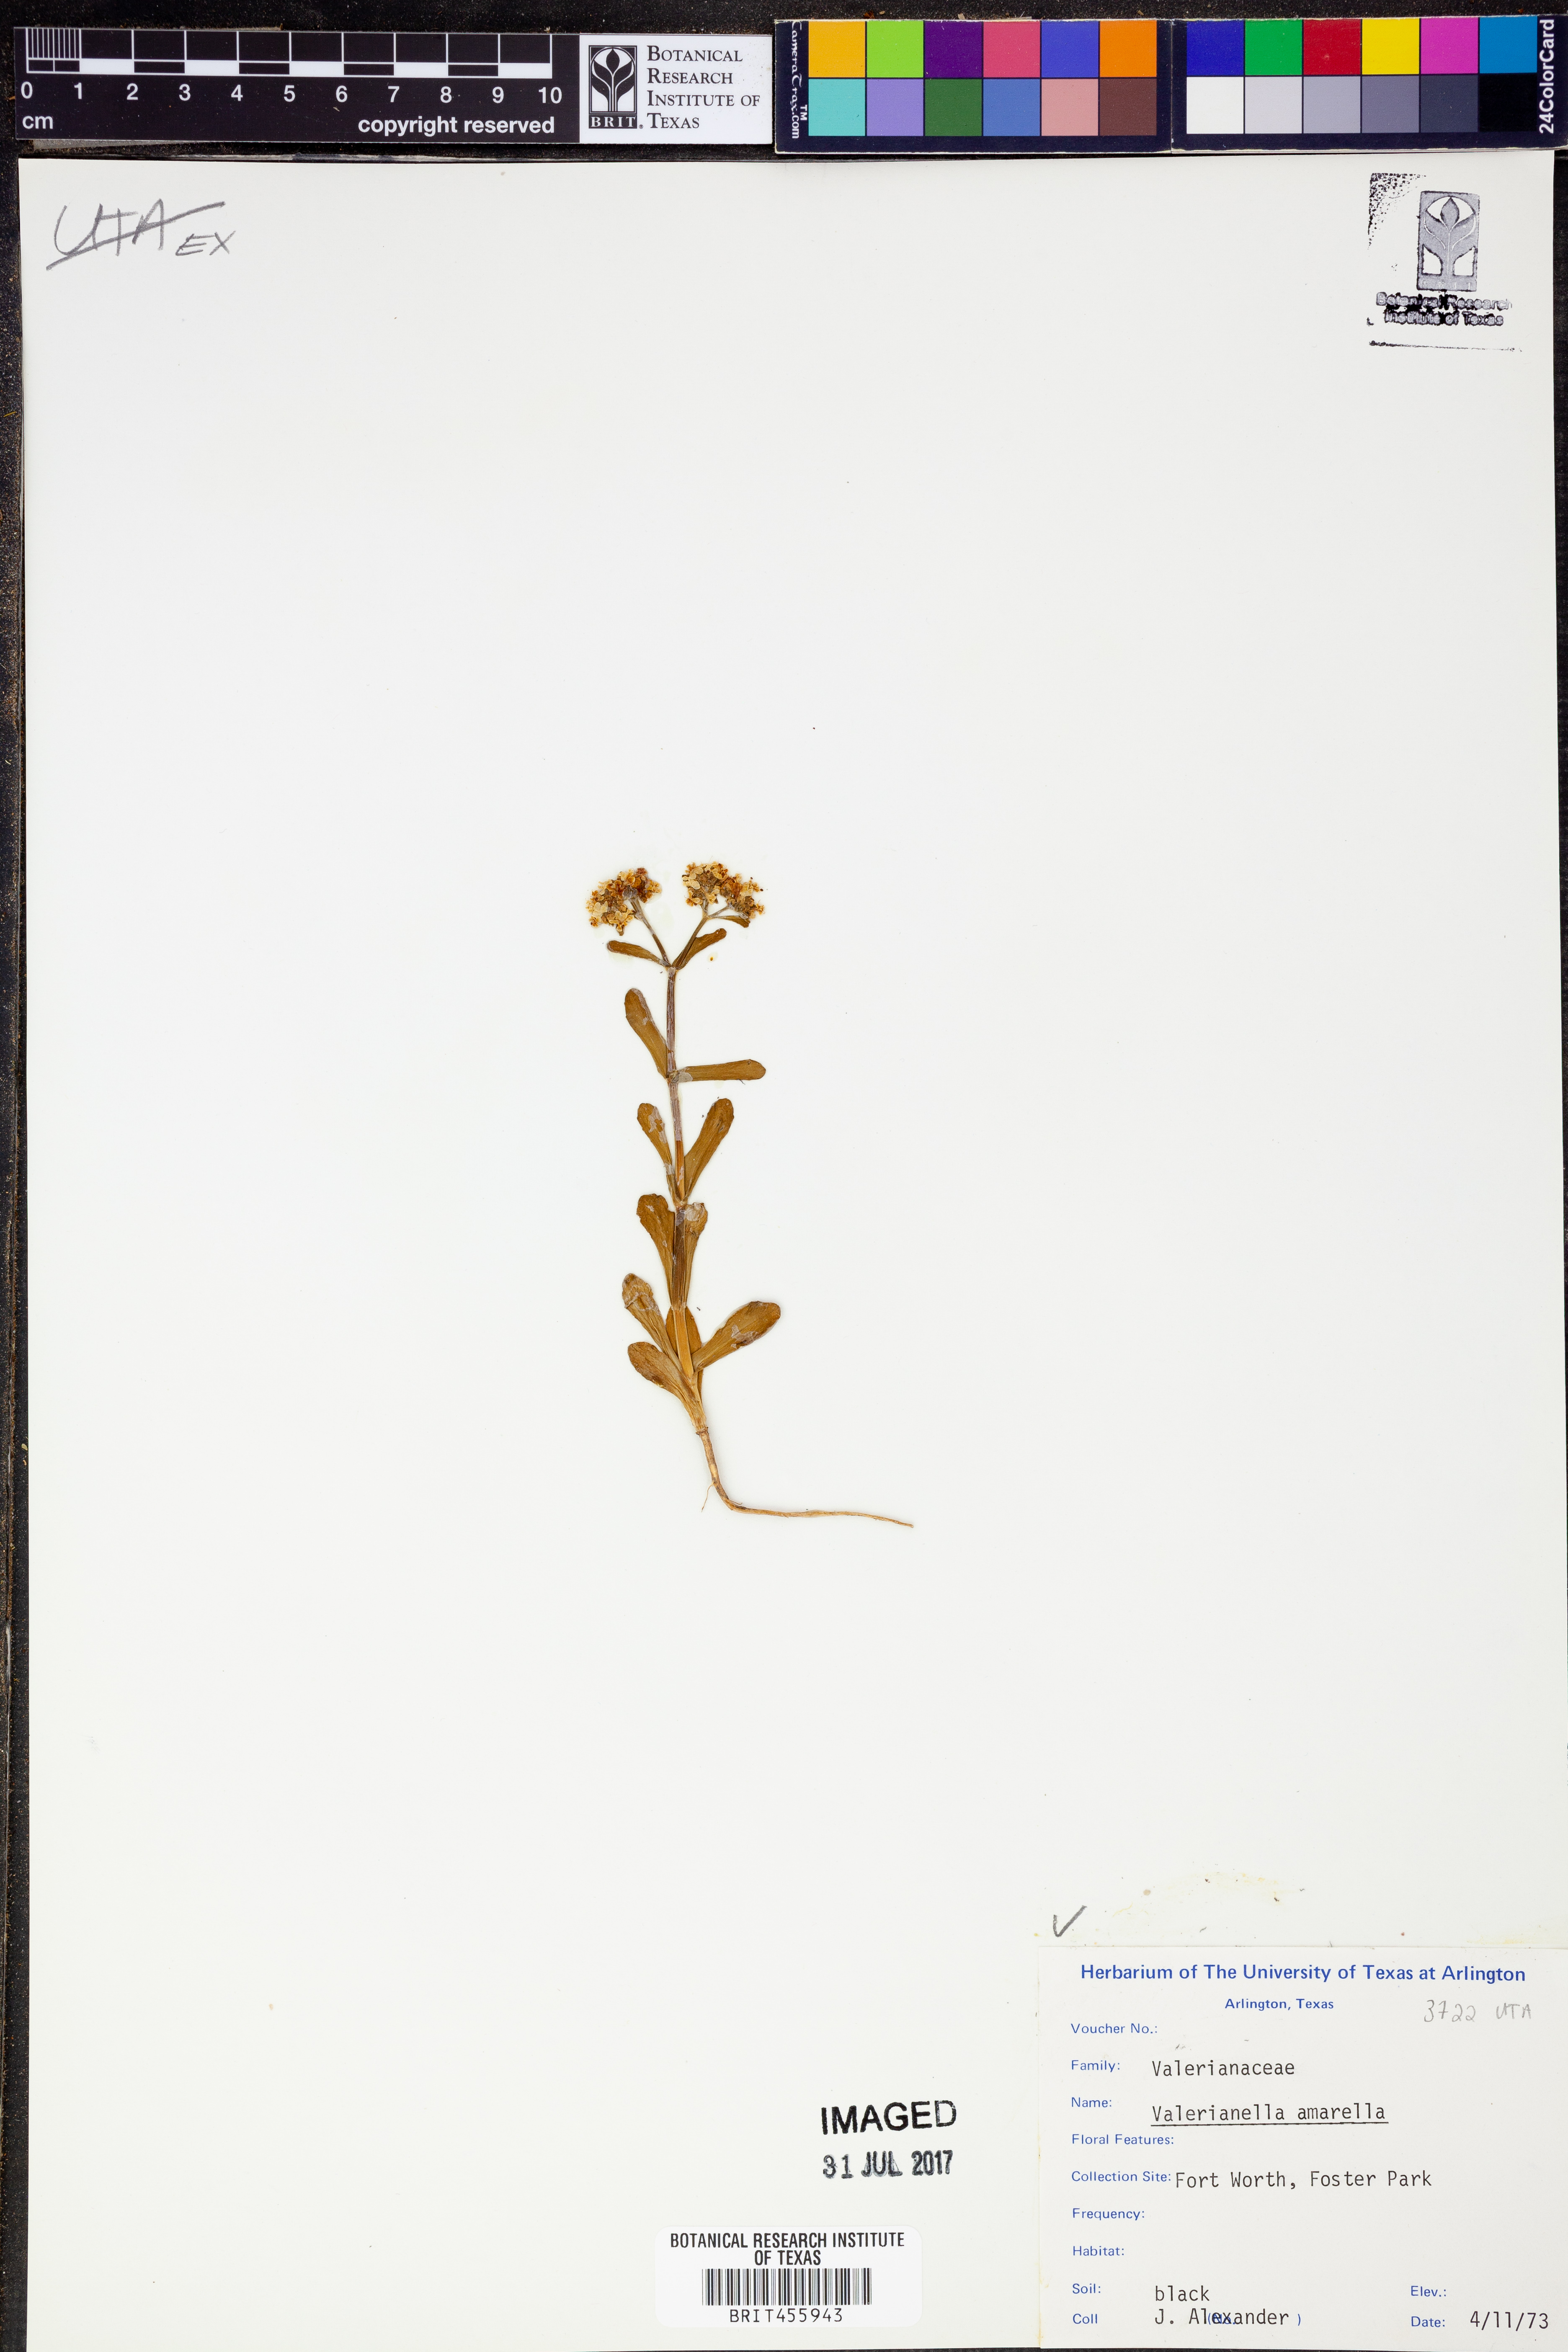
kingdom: Plantae
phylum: Tracheophyta
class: Magnoliopsida
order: Dipsacales
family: Caprifoliaceae
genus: Valerianella
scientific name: Valerianella amarella
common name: Hariy cornsalad
